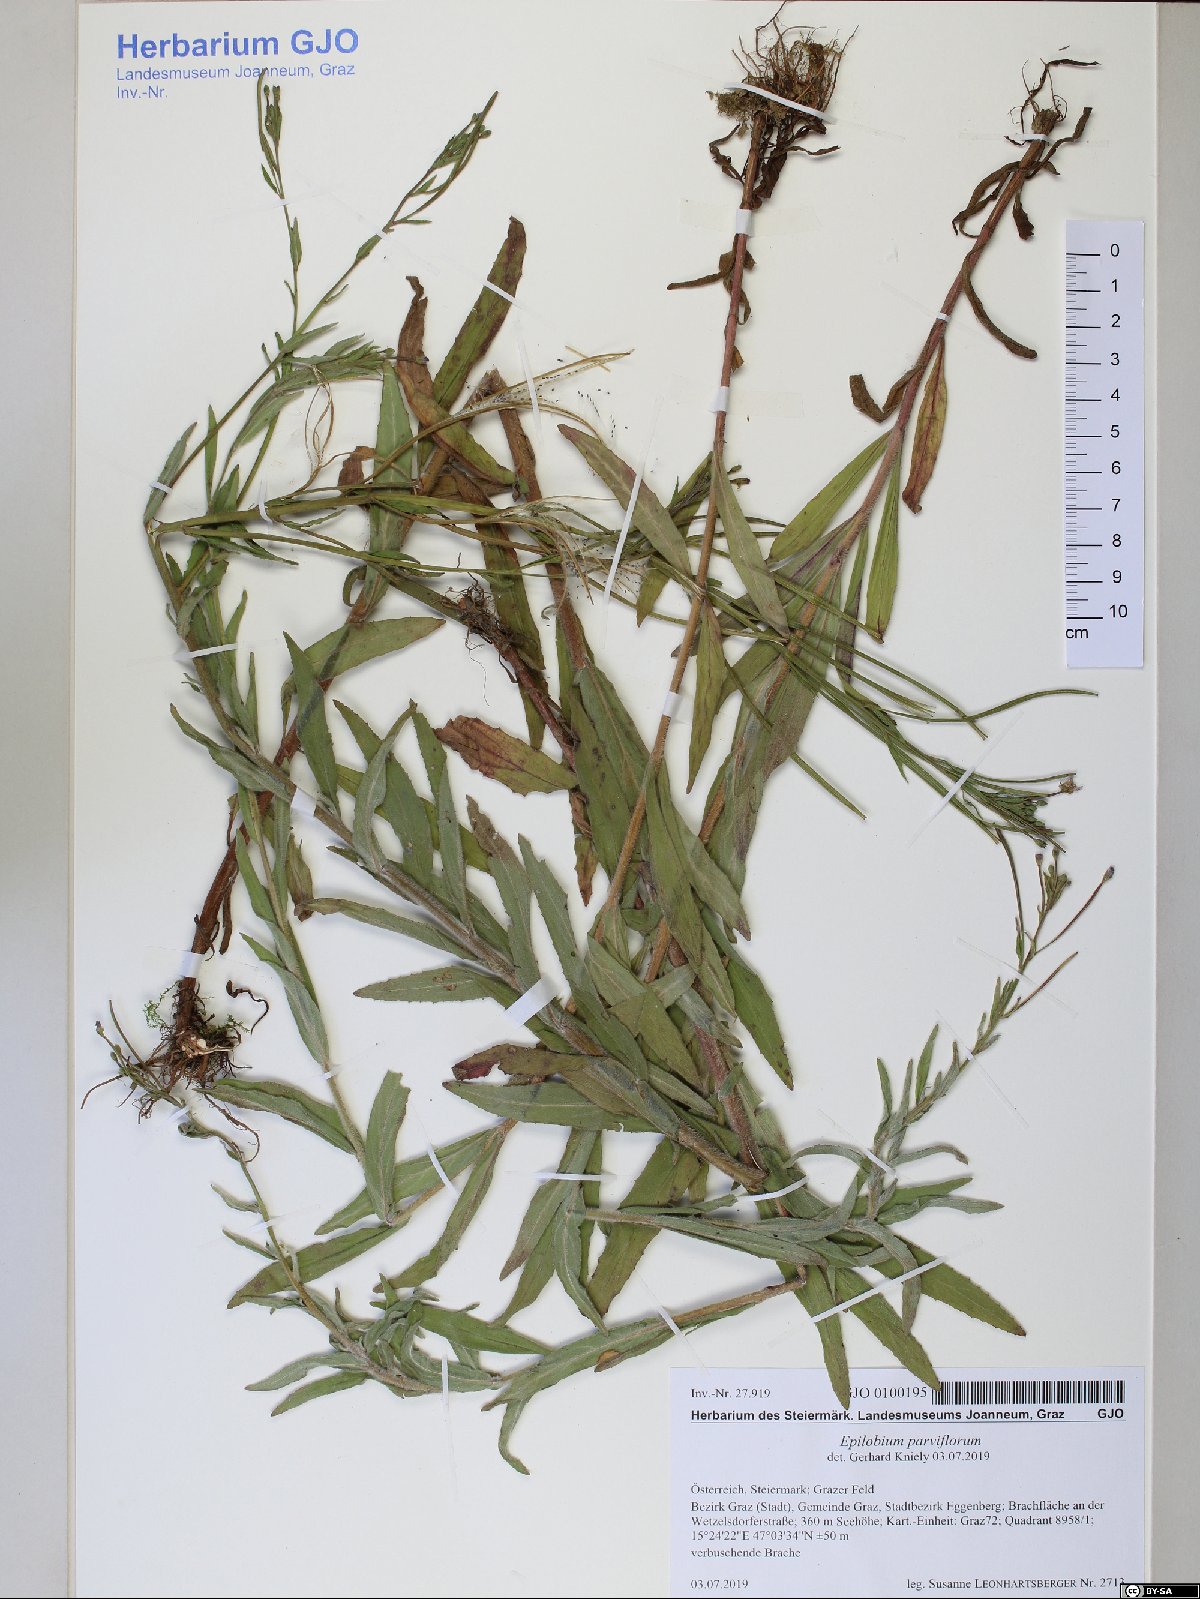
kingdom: Plantae
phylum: Tracheophyta
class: Magnoliopsida
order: Myrtales
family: Onagraceae
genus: Epilobium
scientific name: Epilobium parviflorum
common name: Hoary willowherb
